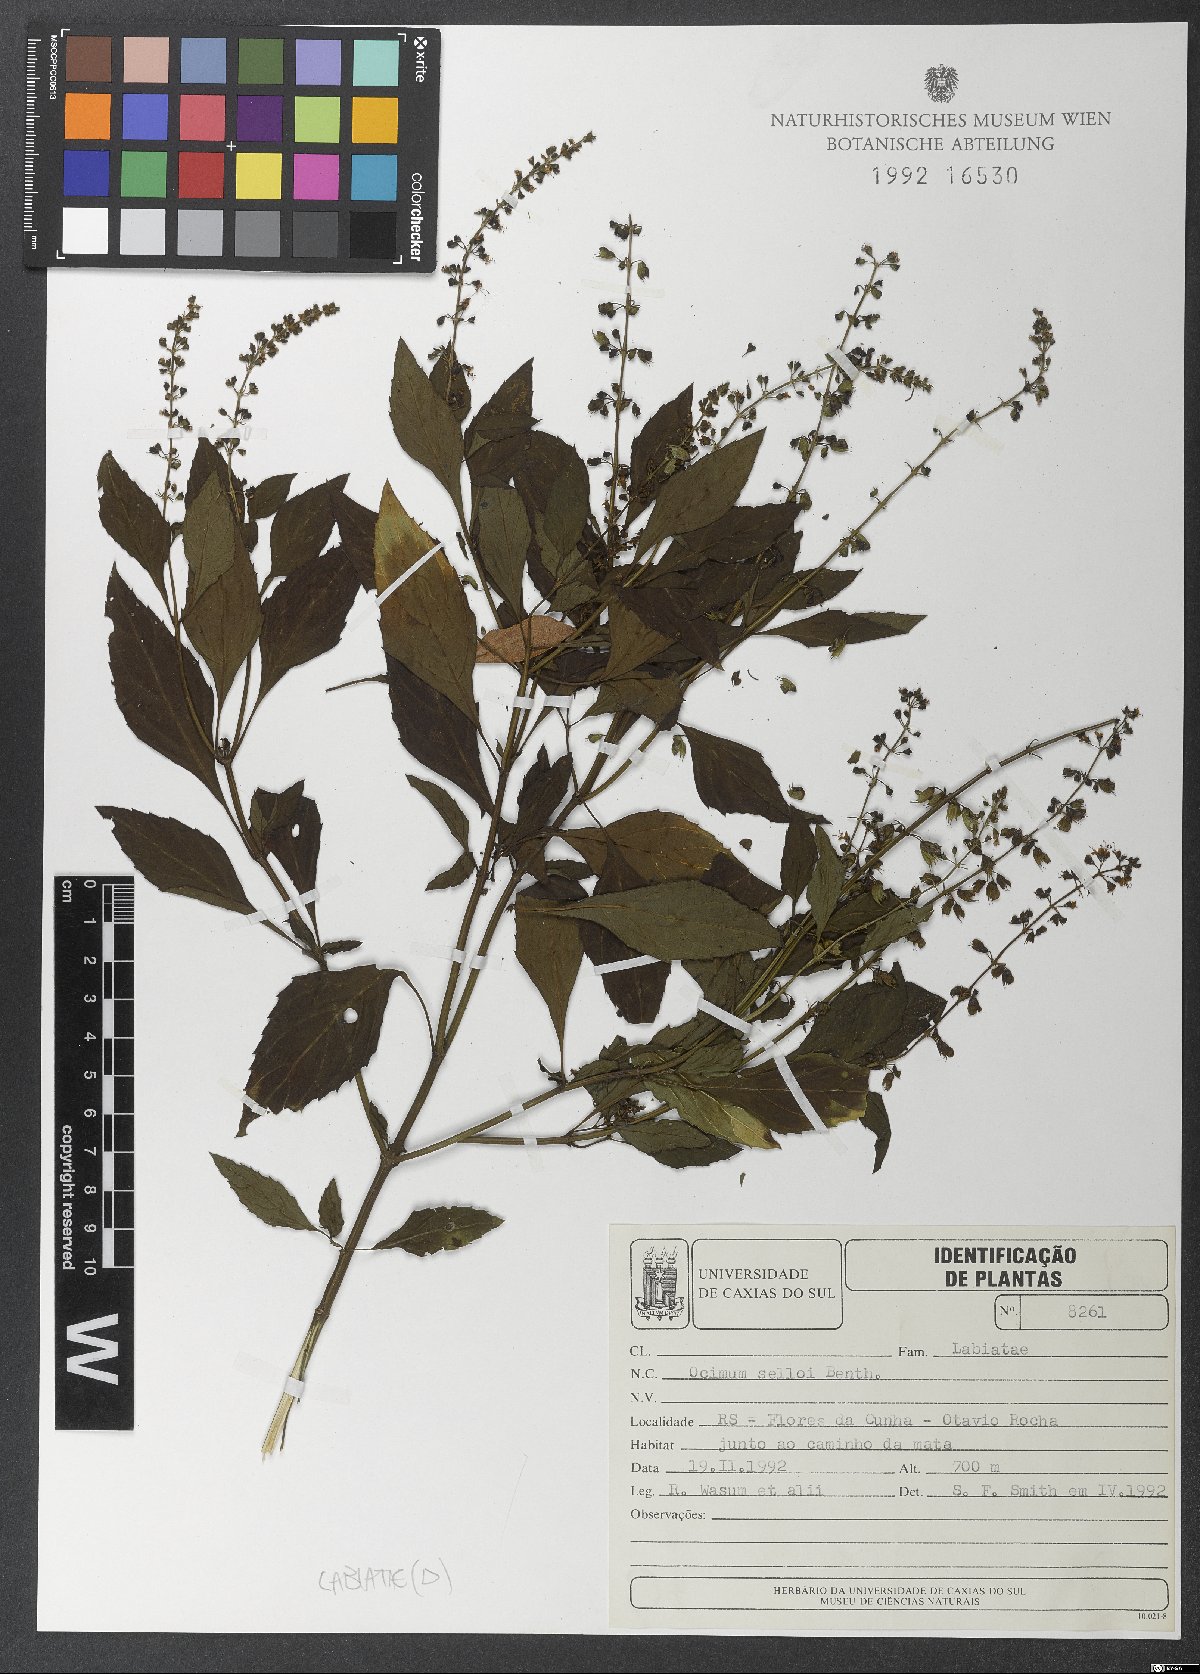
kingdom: Plantae
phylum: Tracheophyta
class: Magnoliopsida
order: Lamiales
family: Lamiaceae
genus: Ocimum
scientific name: Ocimum
